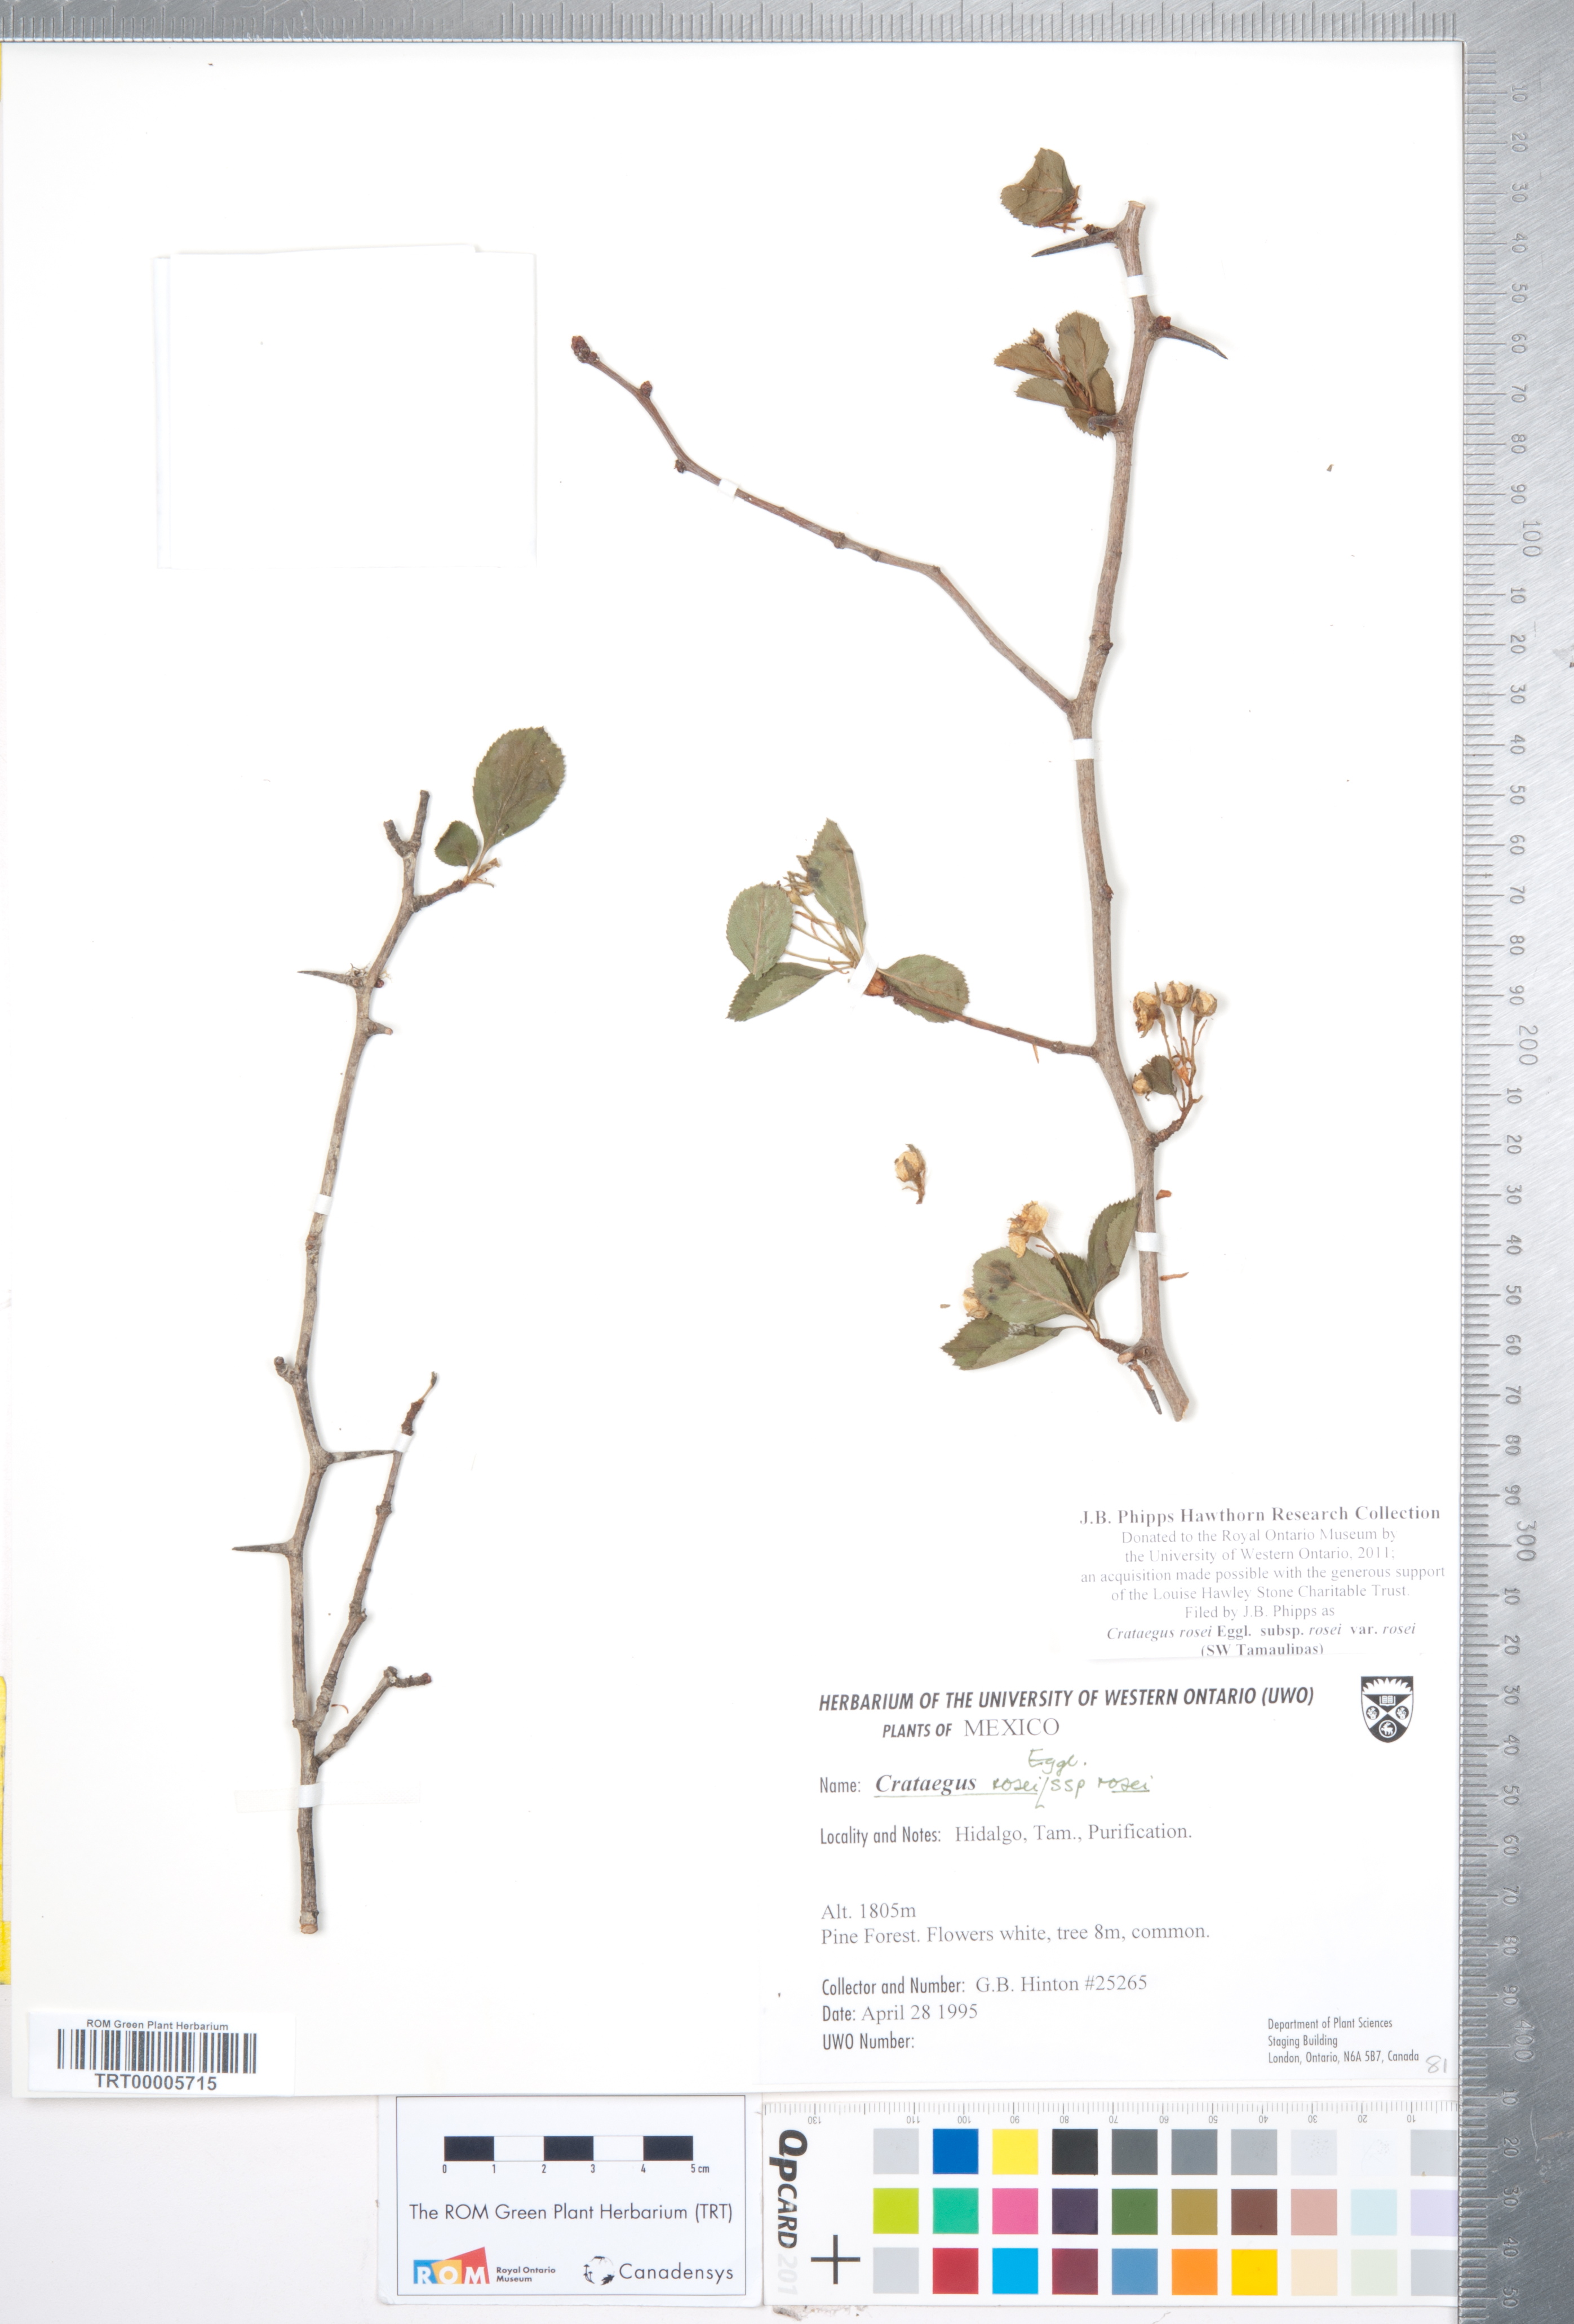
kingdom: Plantae
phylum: Tracheophyta
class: Magnoliopsida
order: Rosales
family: Rosaceae
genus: Crataegus
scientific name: Crataegus rosei
